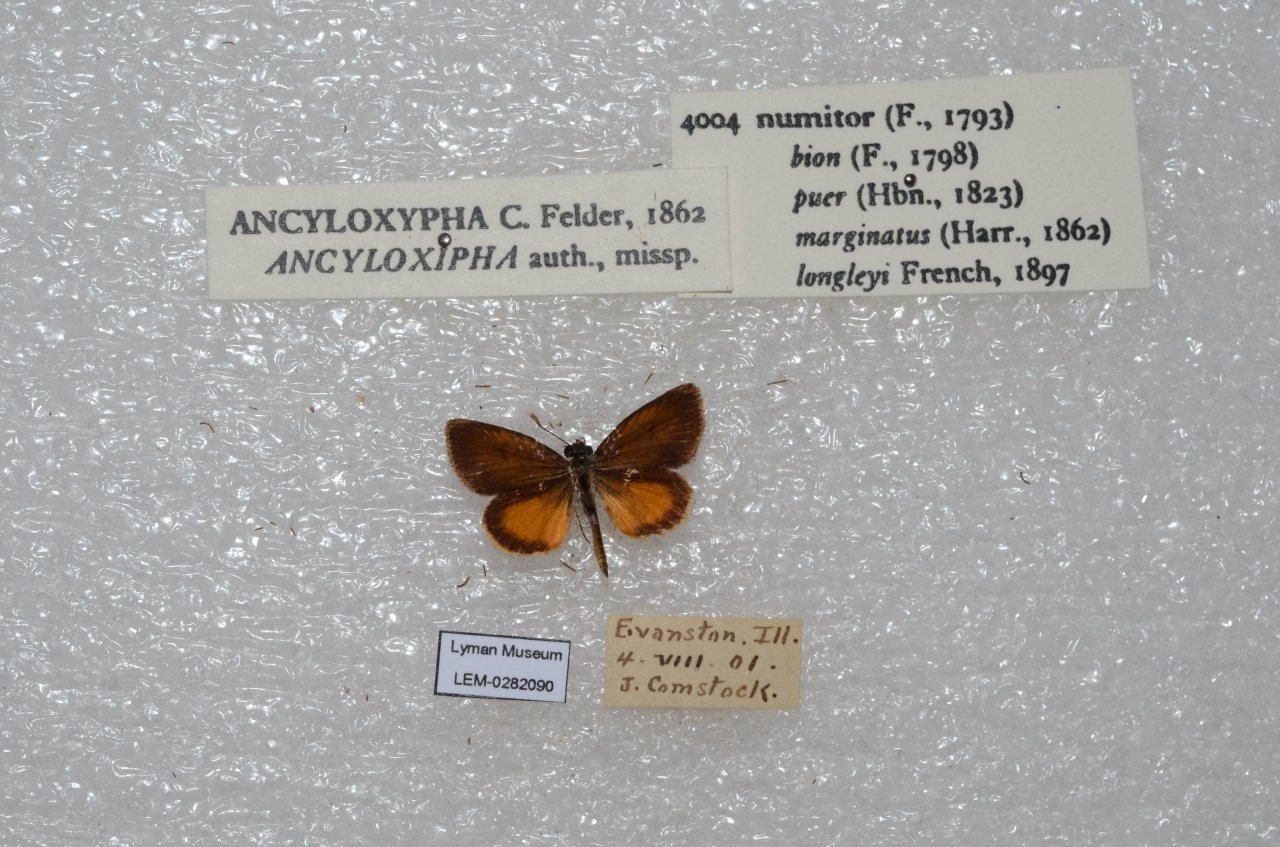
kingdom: Animalia
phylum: Arthropoda
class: Insecta
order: Lepidoptera
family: Hesperiidae
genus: Ancyloxypha
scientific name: Ancyloxypha numitor
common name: Least Skipper
